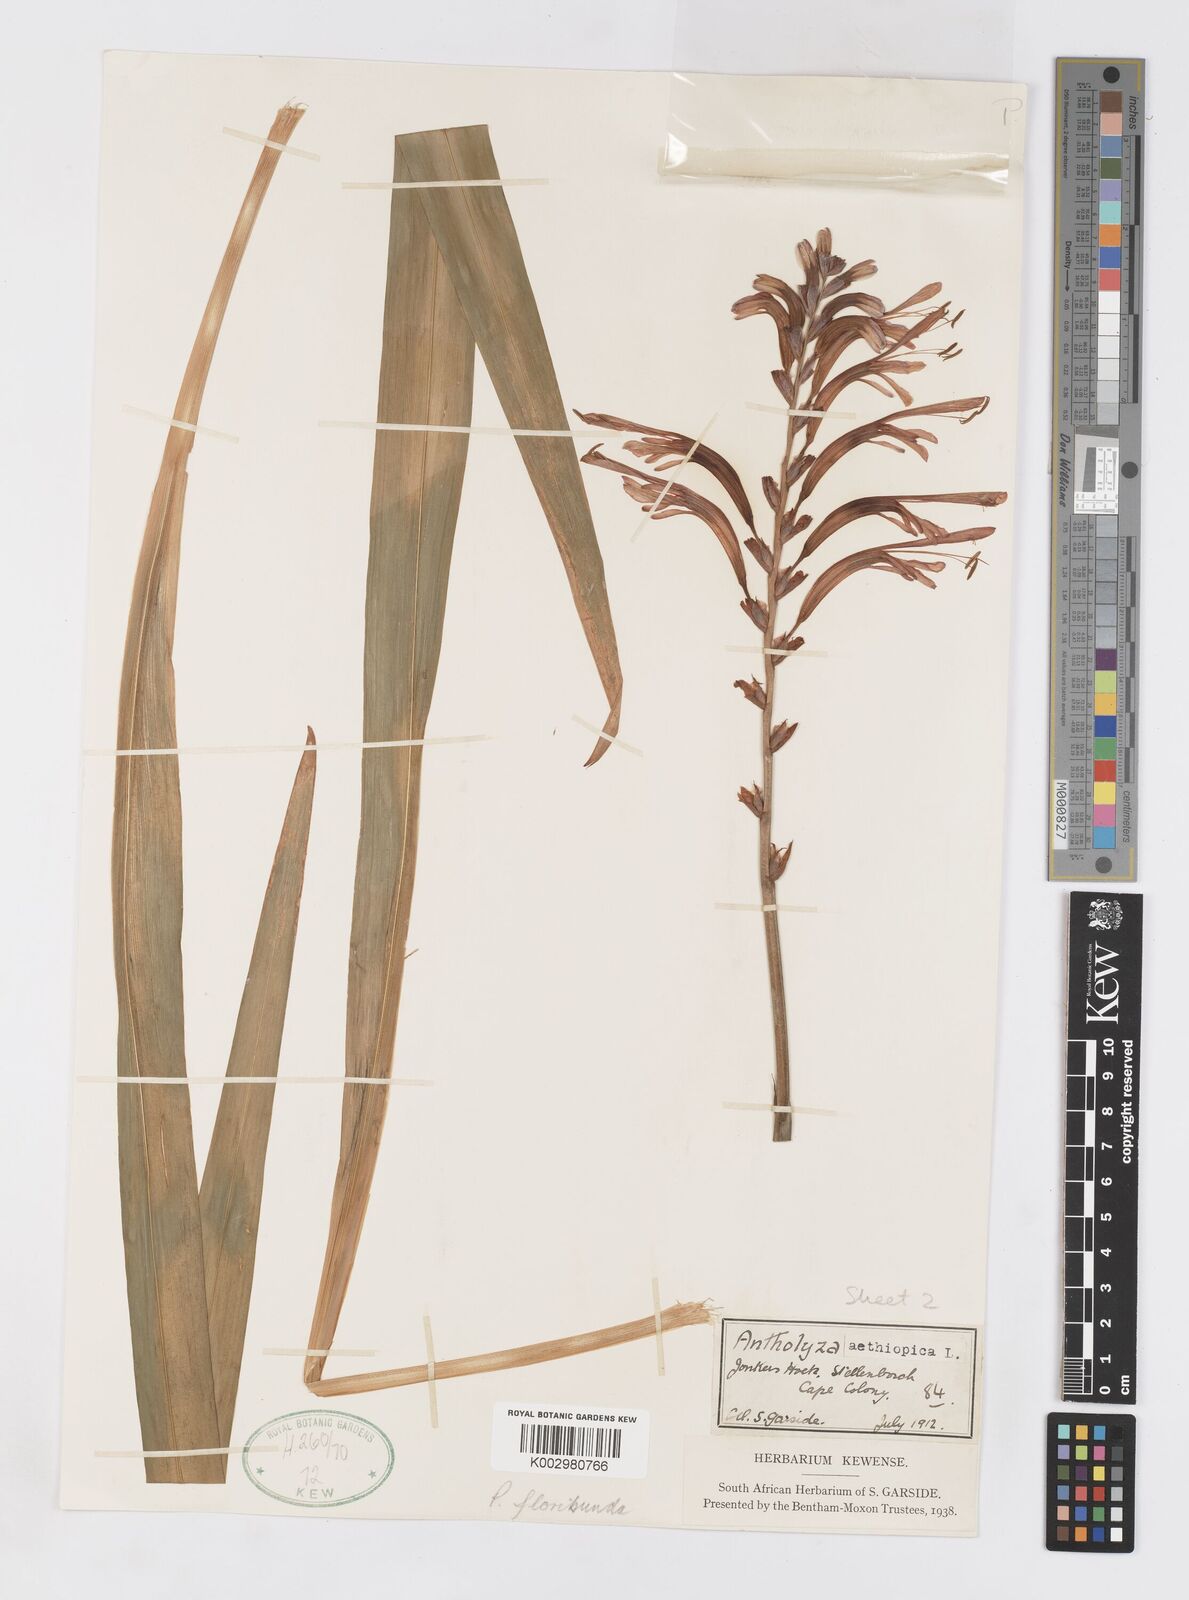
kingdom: Plantae
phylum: Tracheophyta
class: Liliopsida
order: Asparagales
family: Iridaceae
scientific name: Iridaceae
